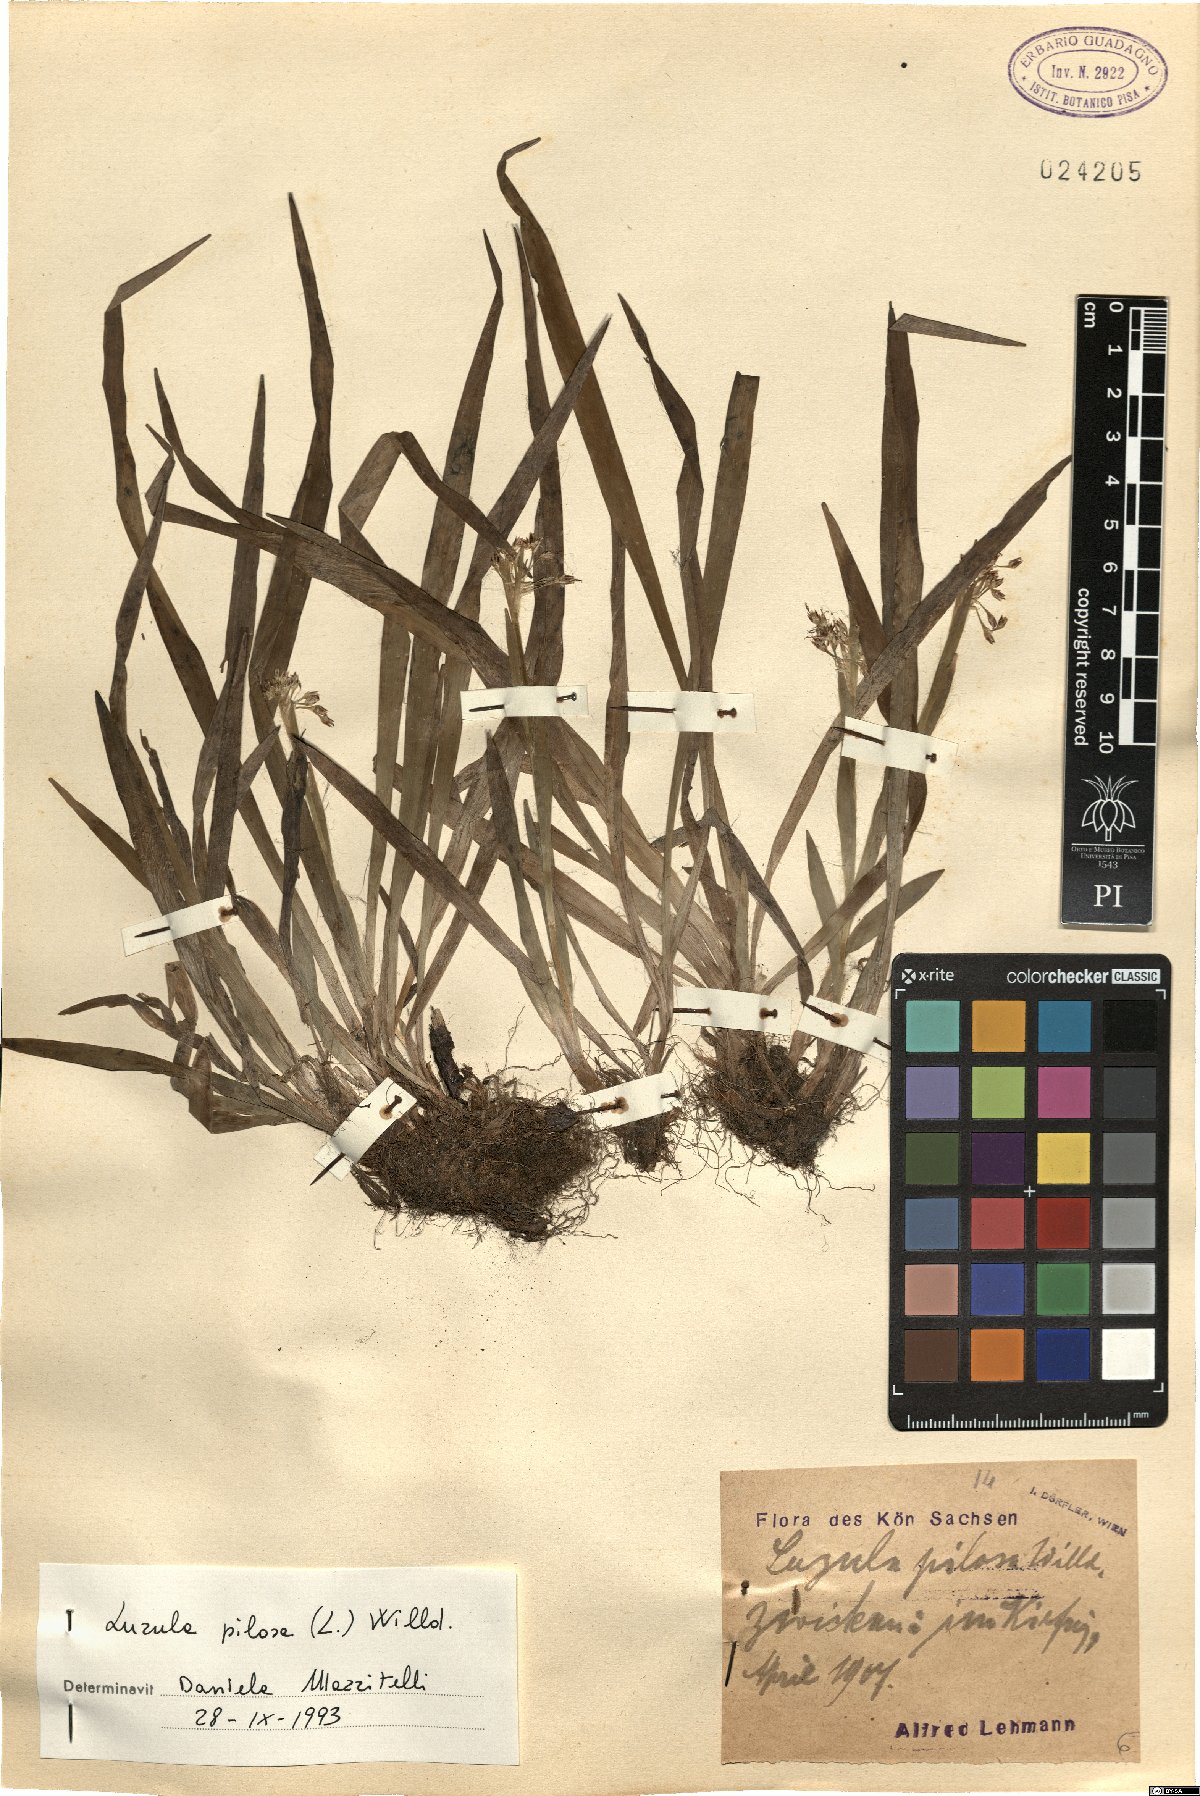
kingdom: Plantae
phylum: Tracheophyta
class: Liliopsida
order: Poales
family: Juncaceae
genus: Luzula
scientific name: Luzula pilosa
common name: Hairy wood-rush
